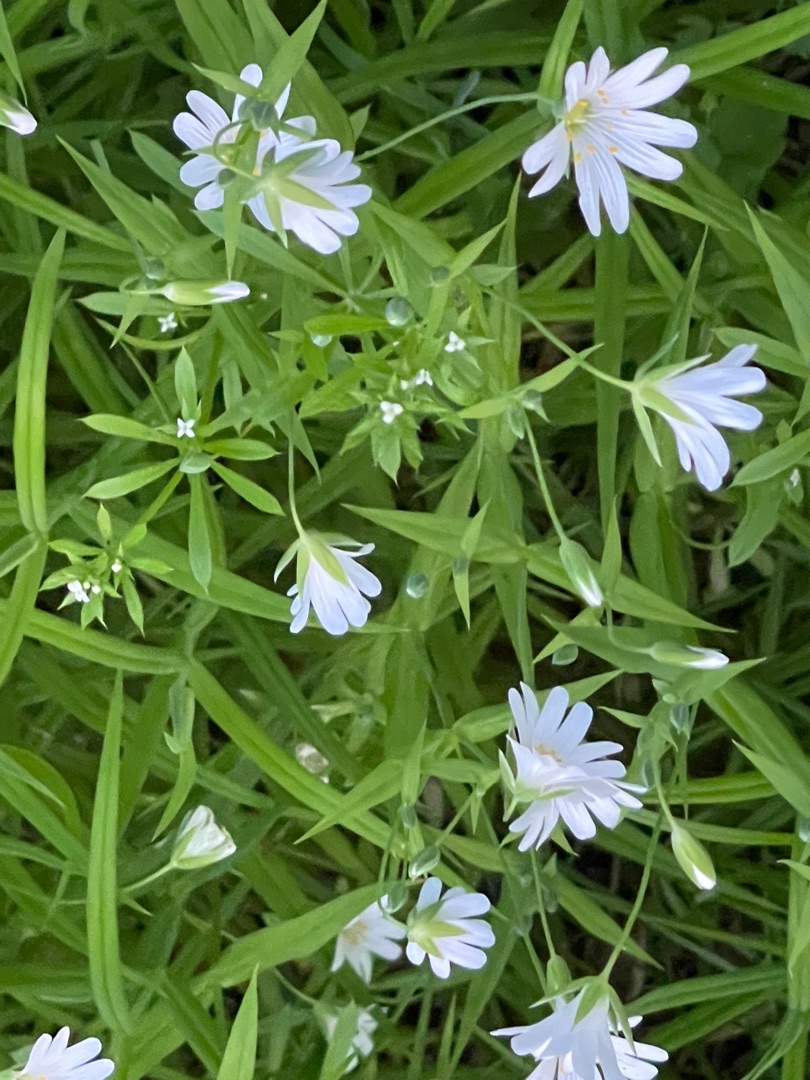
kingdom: Plantae
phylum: Tracheophyta
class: Magnoliopsida
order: Caryophyllales
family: Caryophyllaceae
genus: Rabelera
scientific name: Rabelera holostea
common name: Stor fladstjerne
